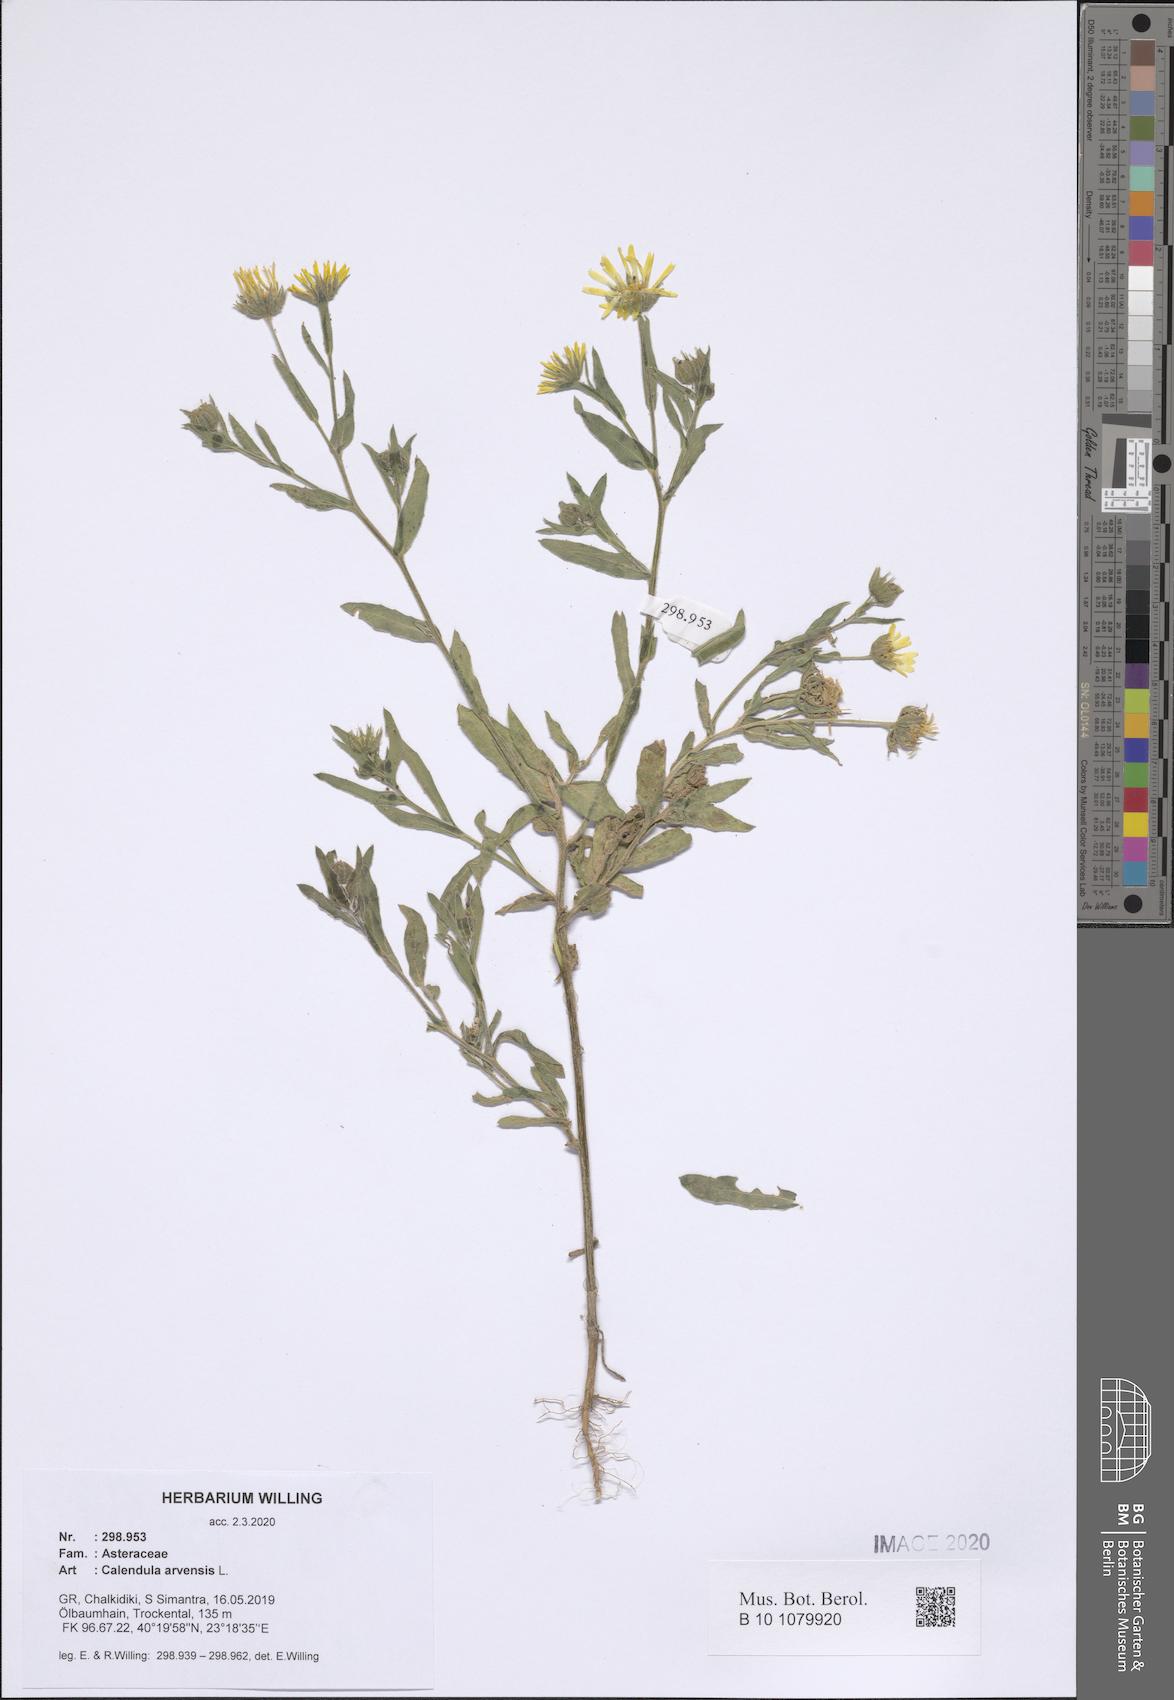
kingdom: Plantae
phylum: Tracheophyta
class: Magnoliopsida
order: Asterales
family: Asteraceae
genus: Calendula
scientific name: Calendula arvensis
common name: Field marigold
